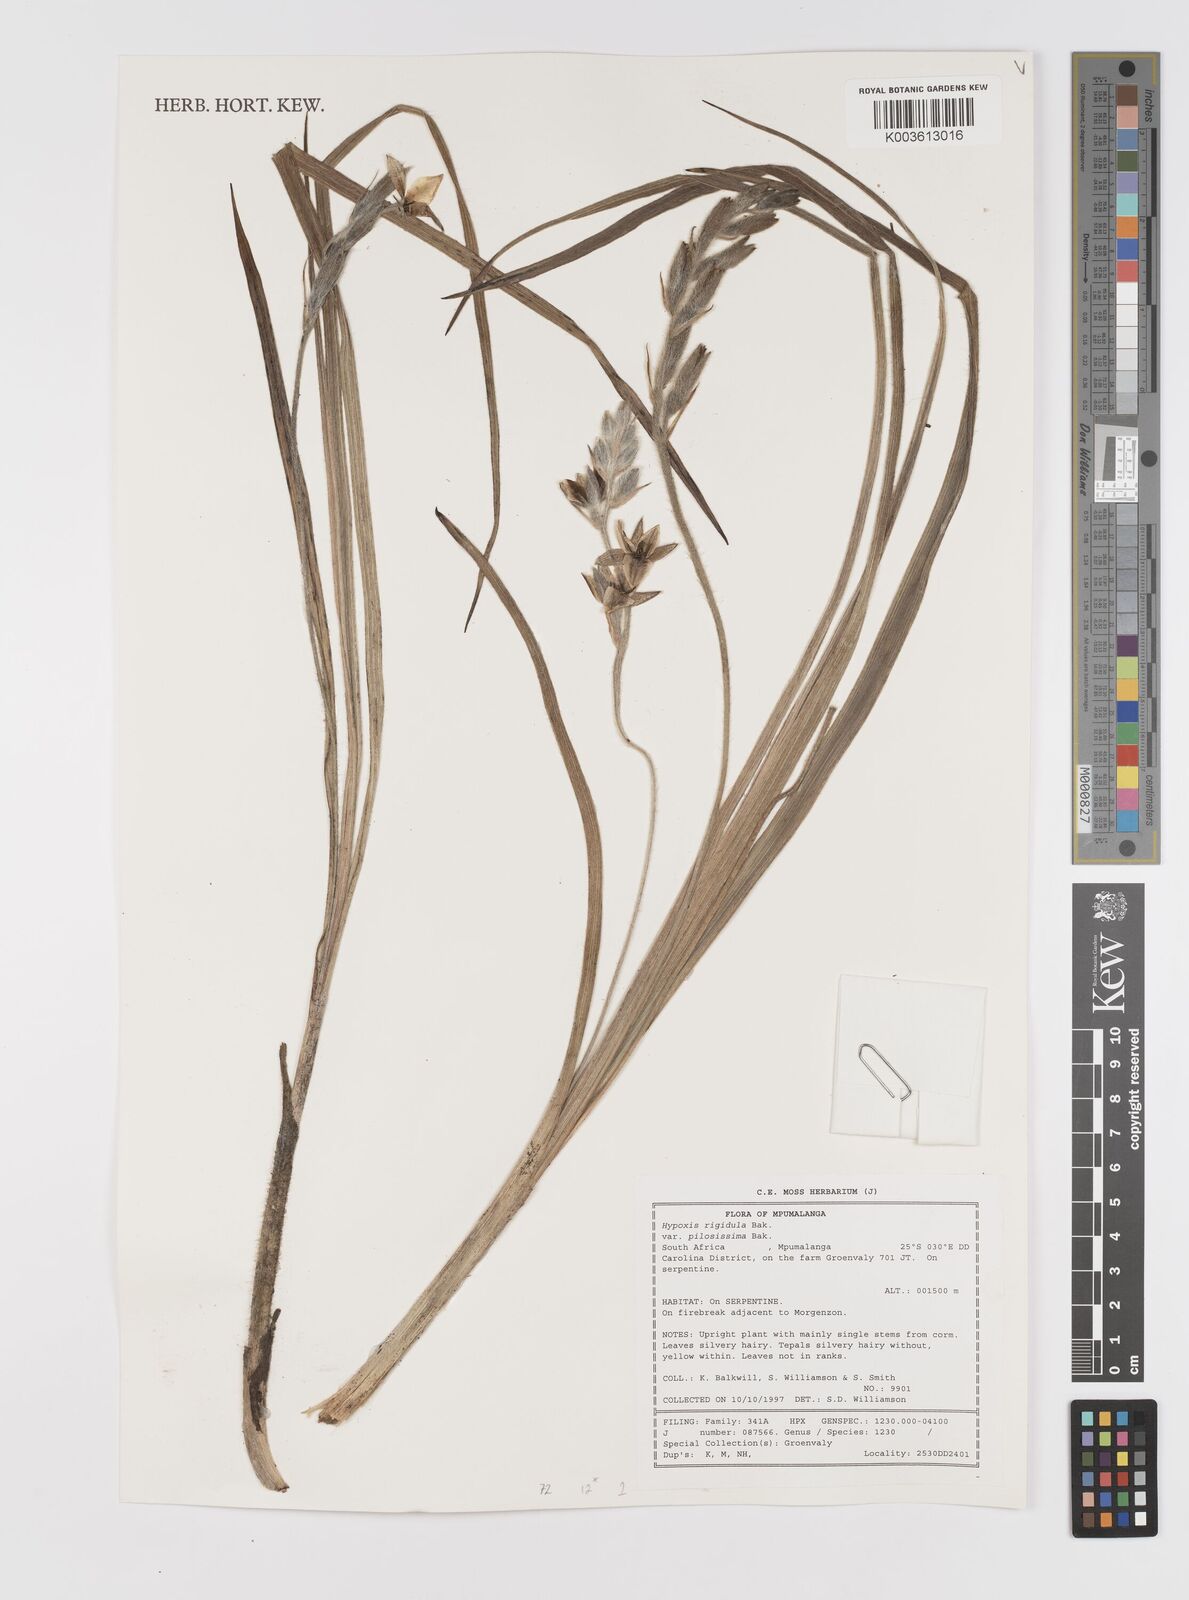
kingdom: Plantae
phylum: Tracheophyta
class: Liliopsida
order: Asparagales
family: Hypoxidaceae
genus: Hypoxis
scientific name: Hypoxis rigidula
